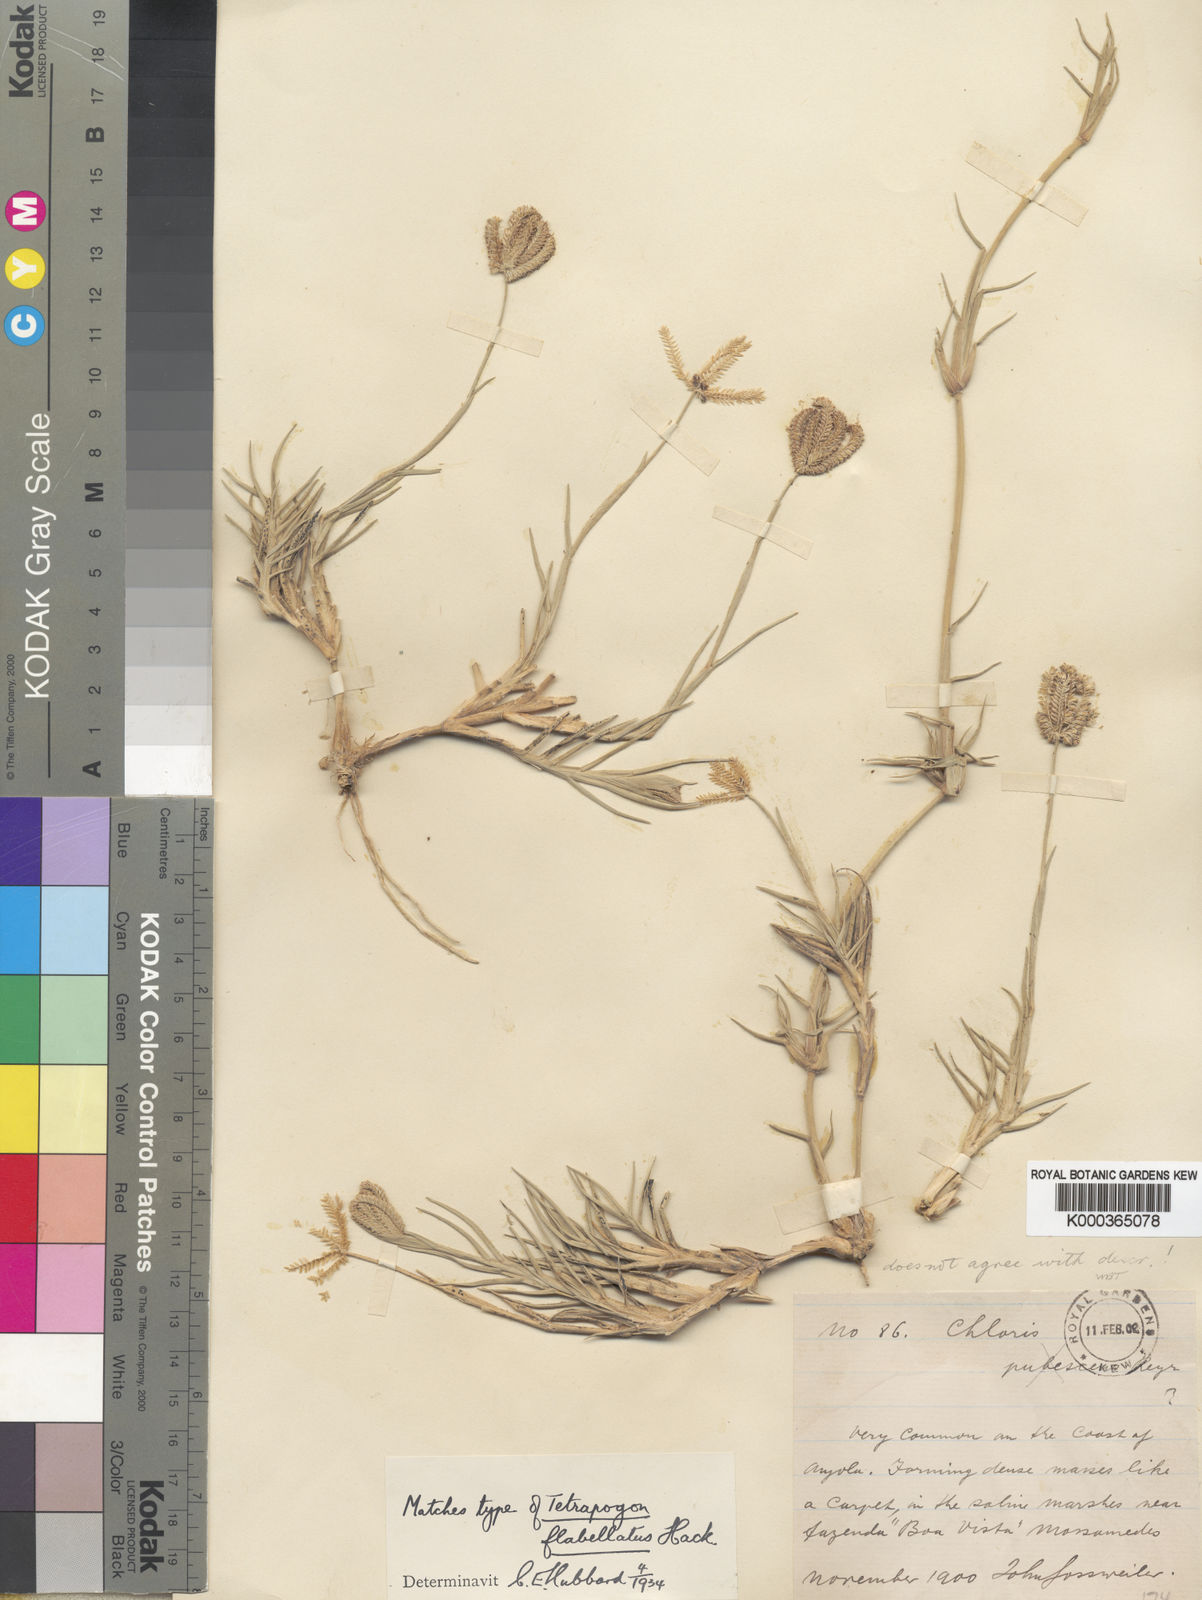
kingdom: Plantae
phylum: Tracheophyta
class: Liliopsida
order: Poales
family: Poaceae
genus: Chloris
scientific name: Chloris flabellata
